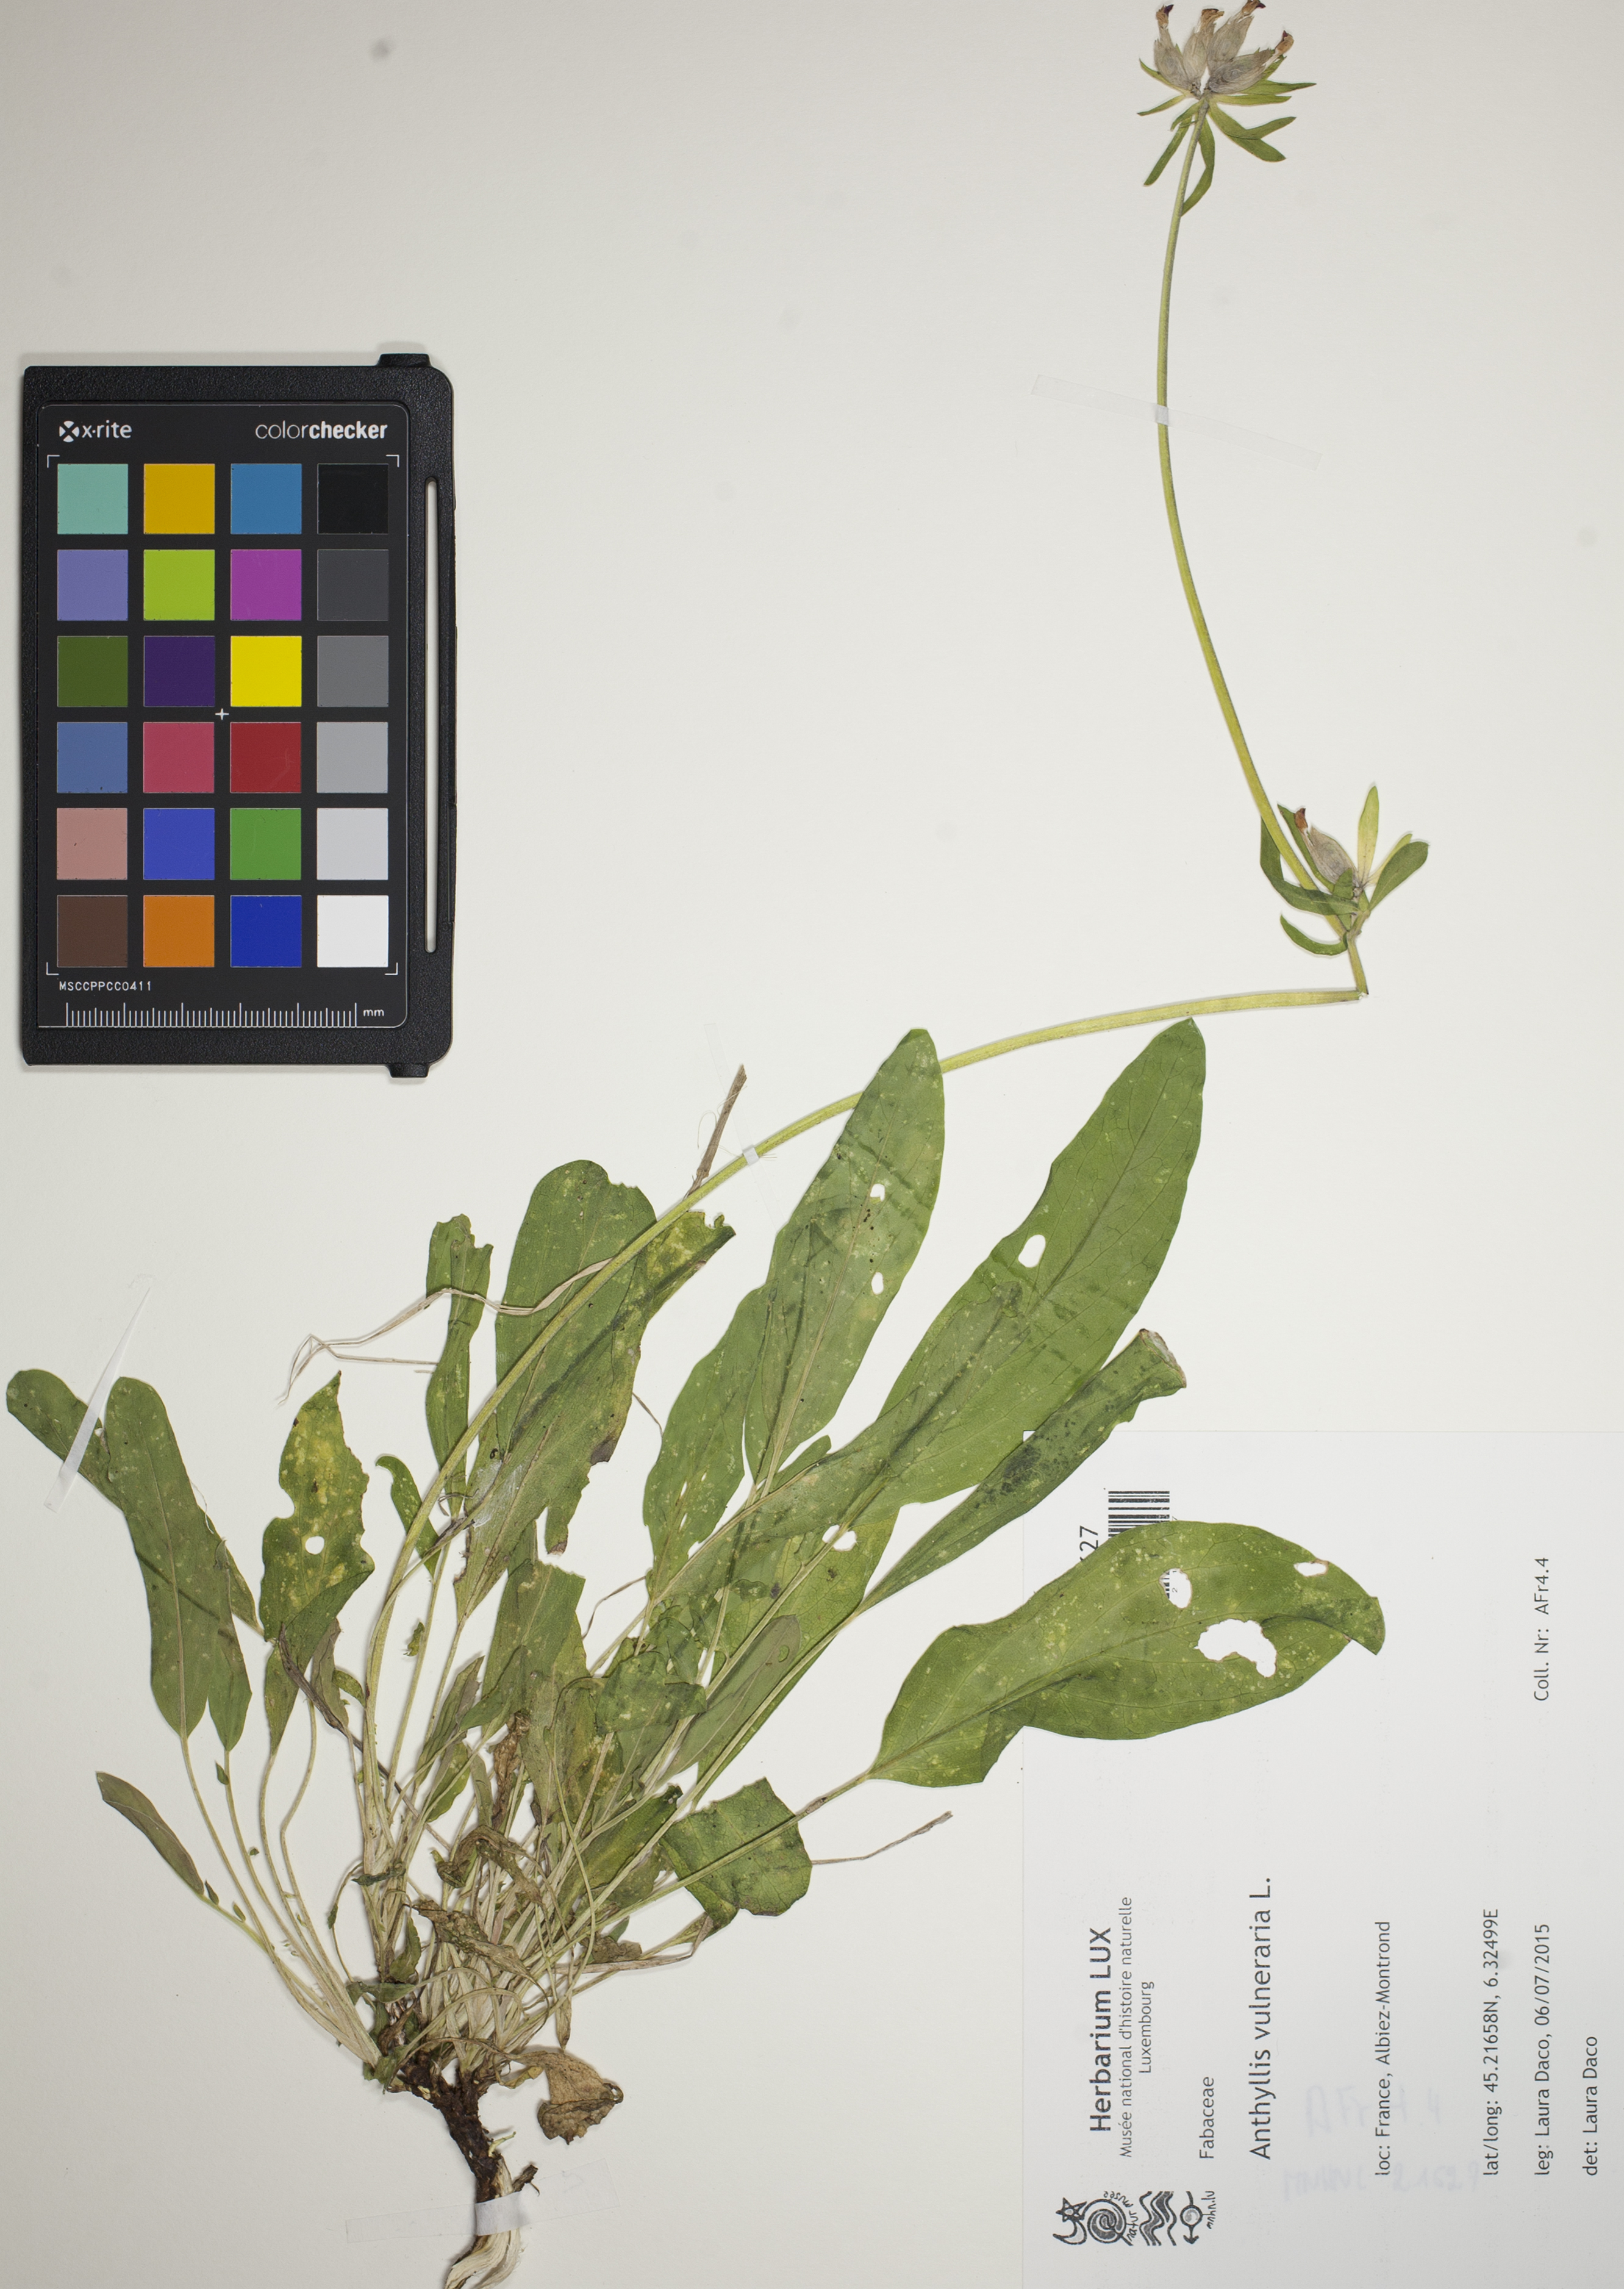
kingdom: Plantae
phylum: Tracheophyta
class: Magnoliopsida
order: Fabales
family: Fabaceae
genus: Anthyllis
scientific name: Anthyllis vulneraria
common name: Kidney vetch
